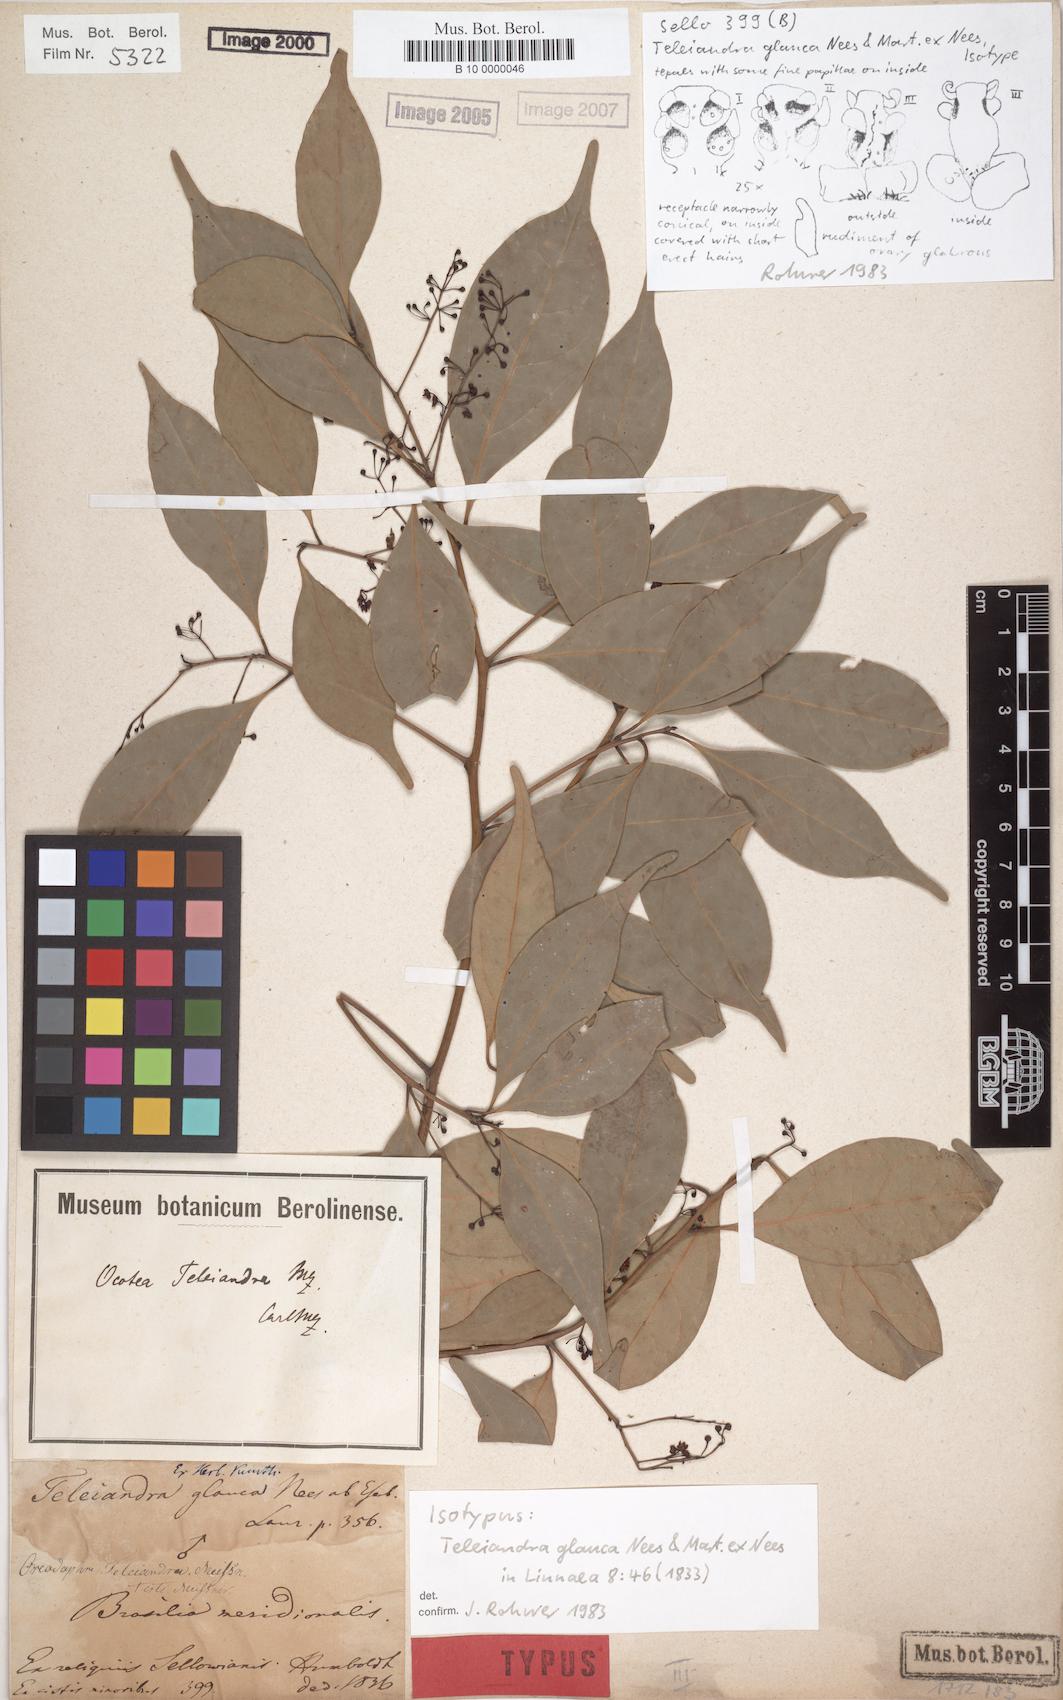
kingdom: Plantae
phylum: Tracheophyta
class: Magnoliopsida
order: Laurales
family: Lauraceae
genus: Ocotea
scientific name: Ocotea teleiandra
